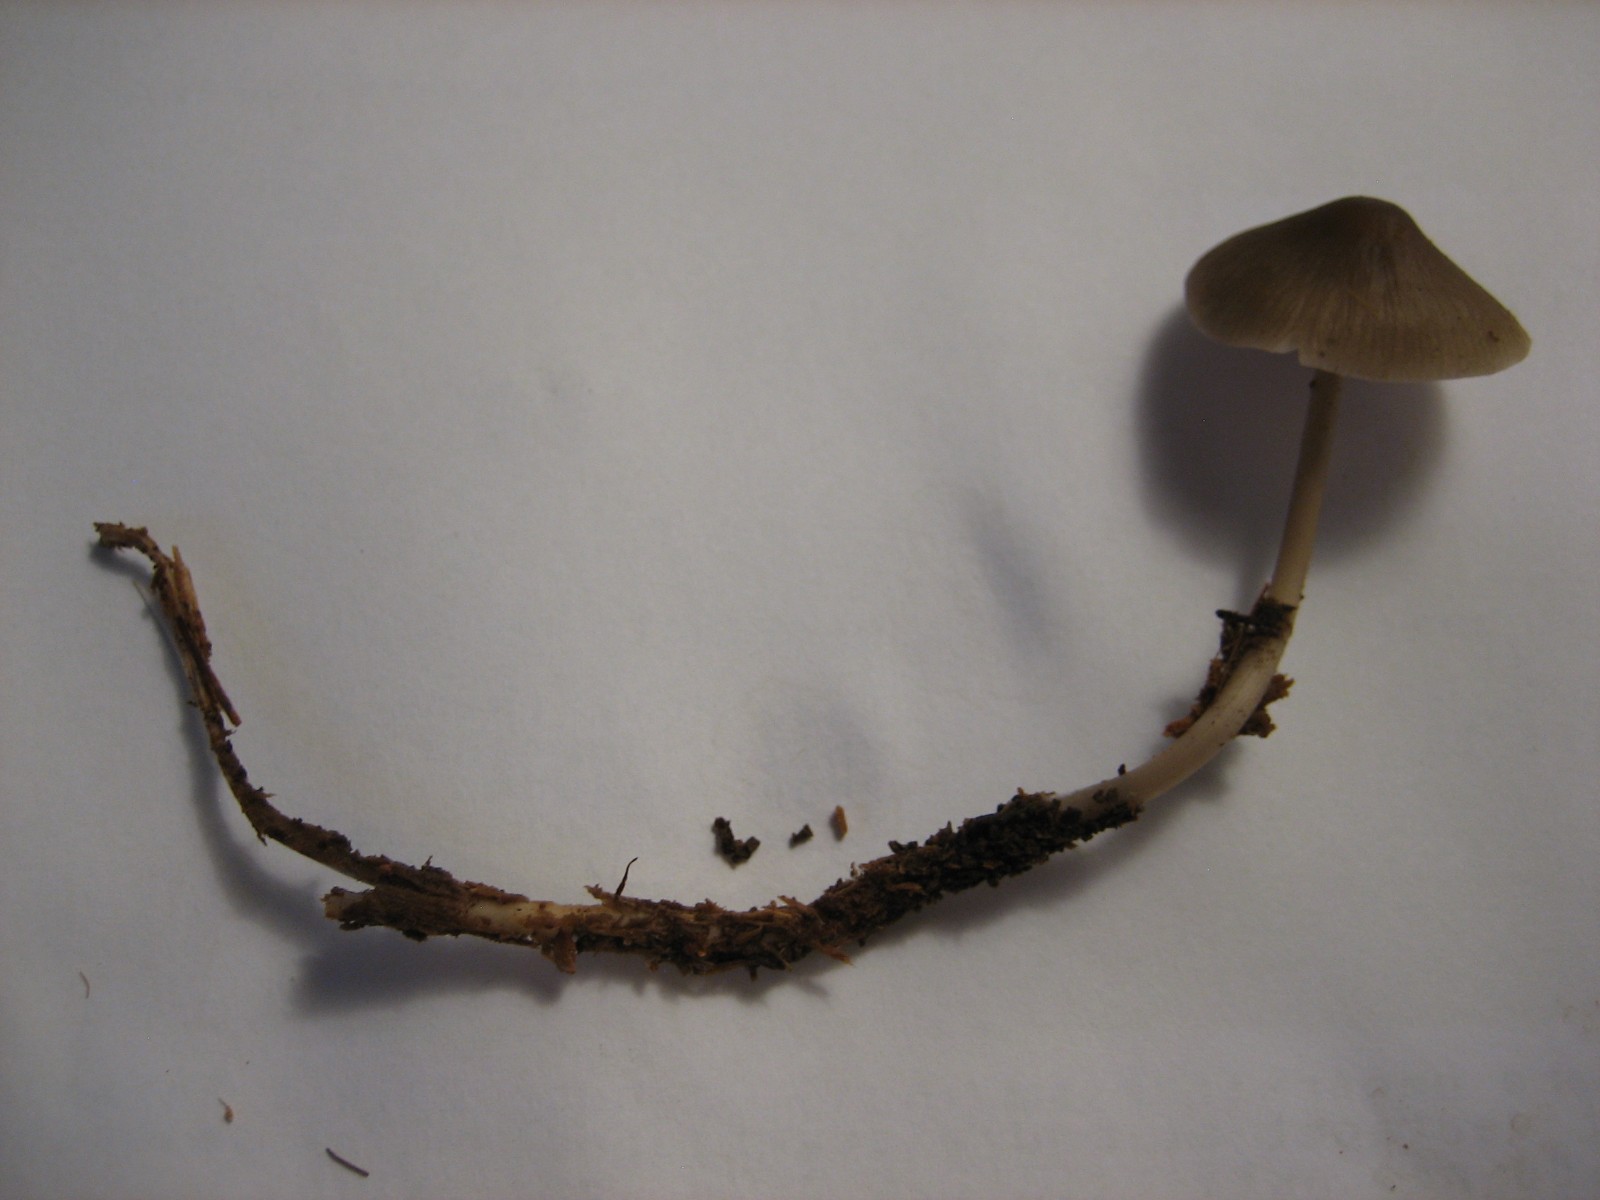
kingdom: Fungi
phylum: Basidiomycota
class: Agaricomycetes
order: Agaricales
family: Mycenaceae
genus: Mycena
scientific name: Mycena galericulata
